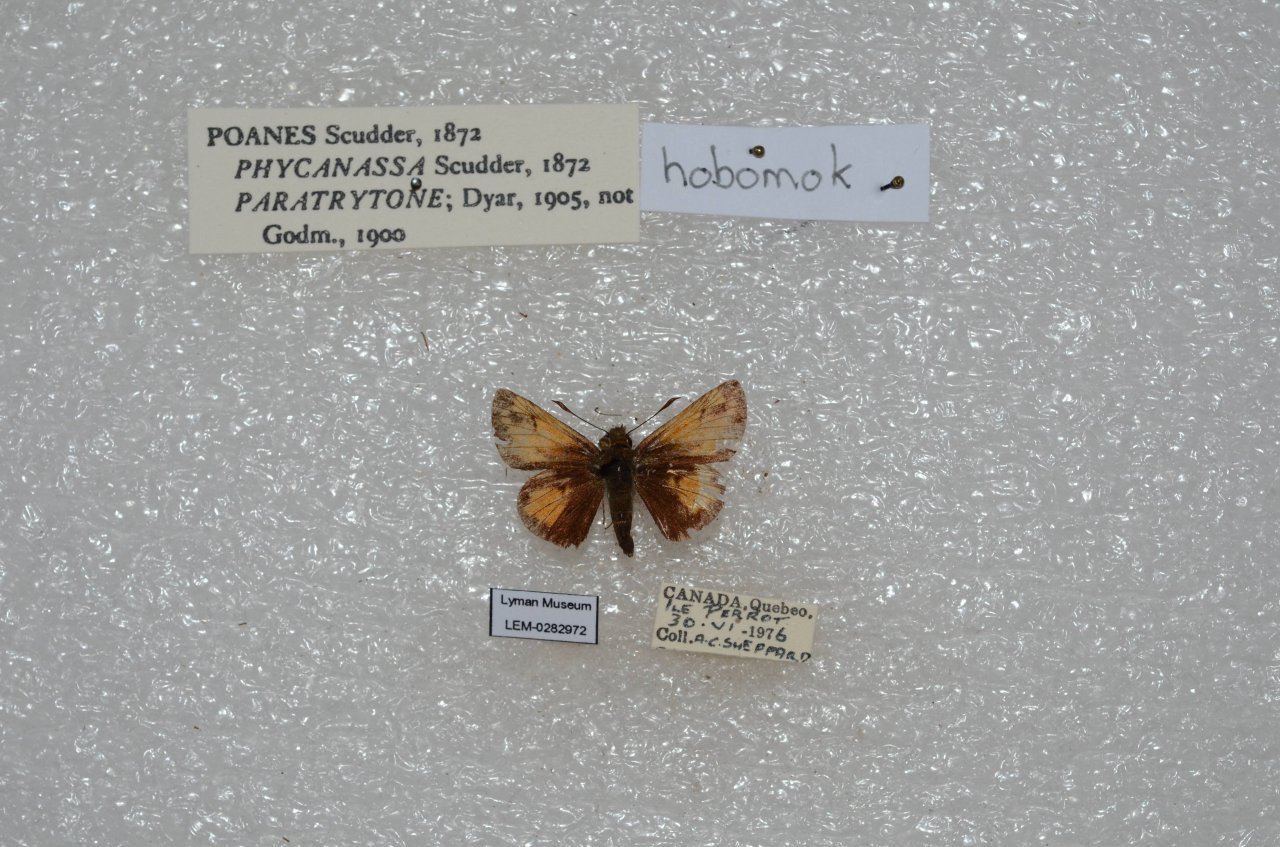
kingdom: Animalia
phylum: Arthropoda
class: Insecta
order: Lepidoptera
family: Hesperiidae
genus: Lon
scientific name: Lon hobomok
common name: Hobomok Skipper
